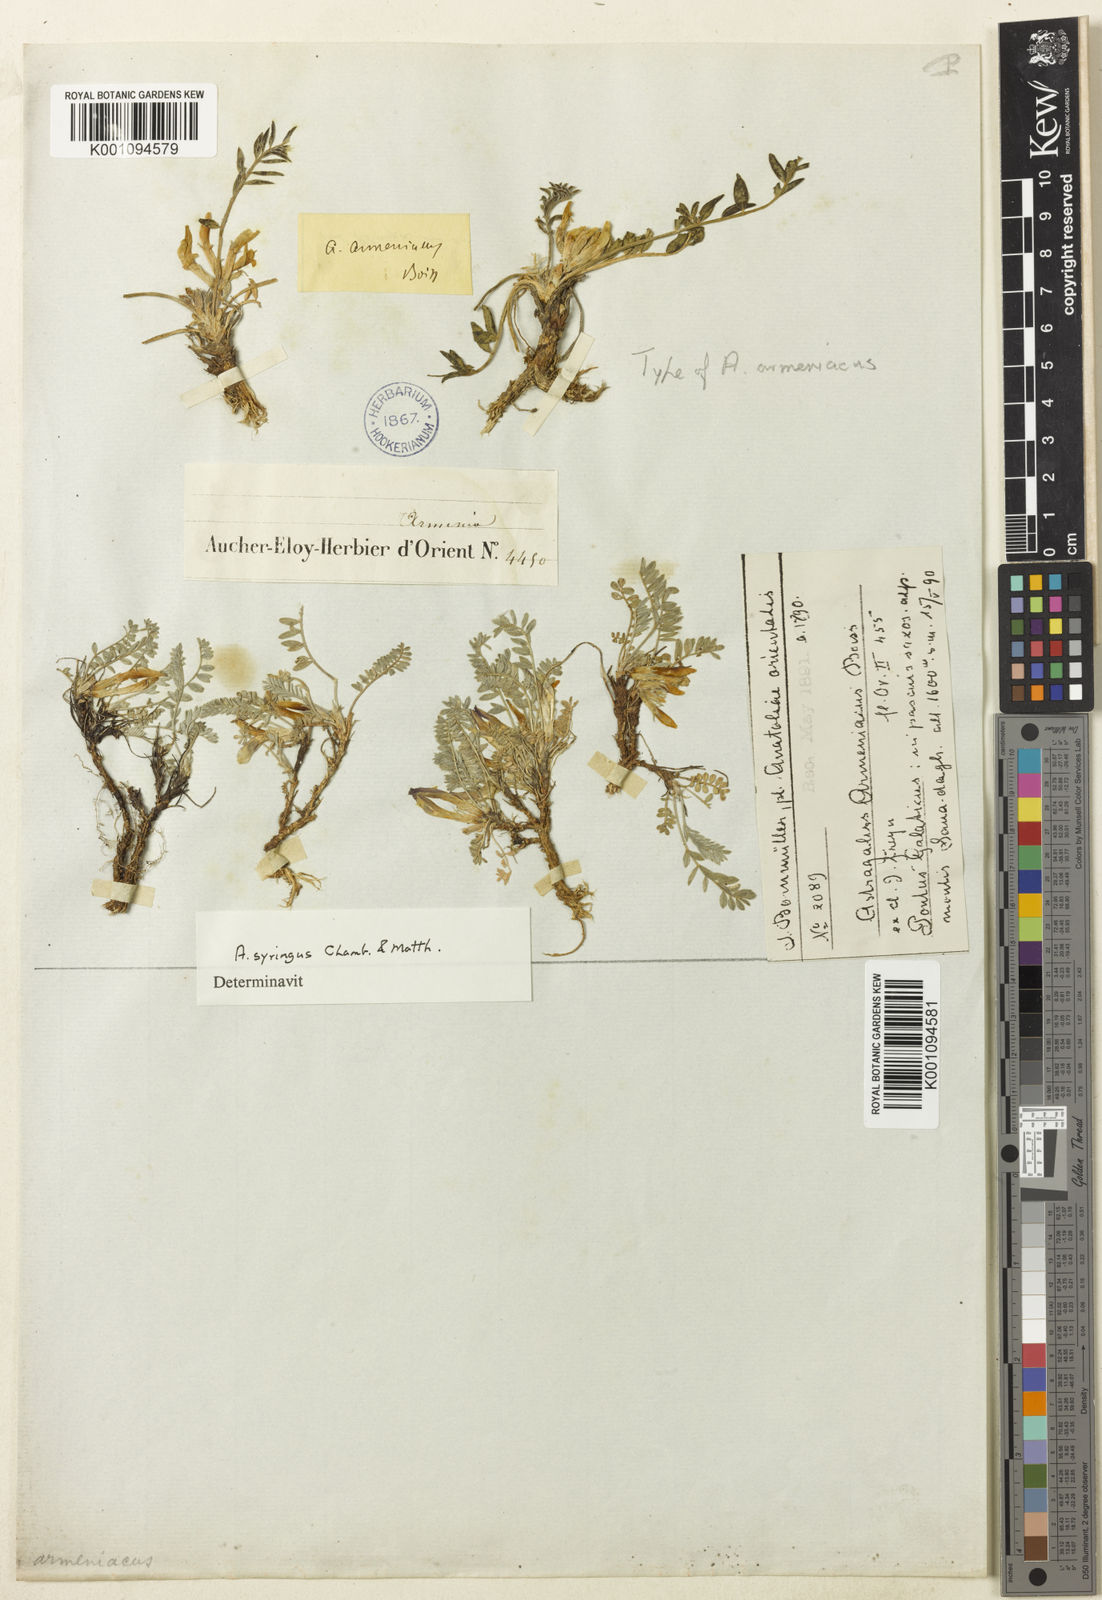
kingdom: Plantae
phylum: Tracheophyta
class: Magnoliopsida
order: Fabales
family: Fabaceae
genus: Astragalus
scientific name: Astragalus
